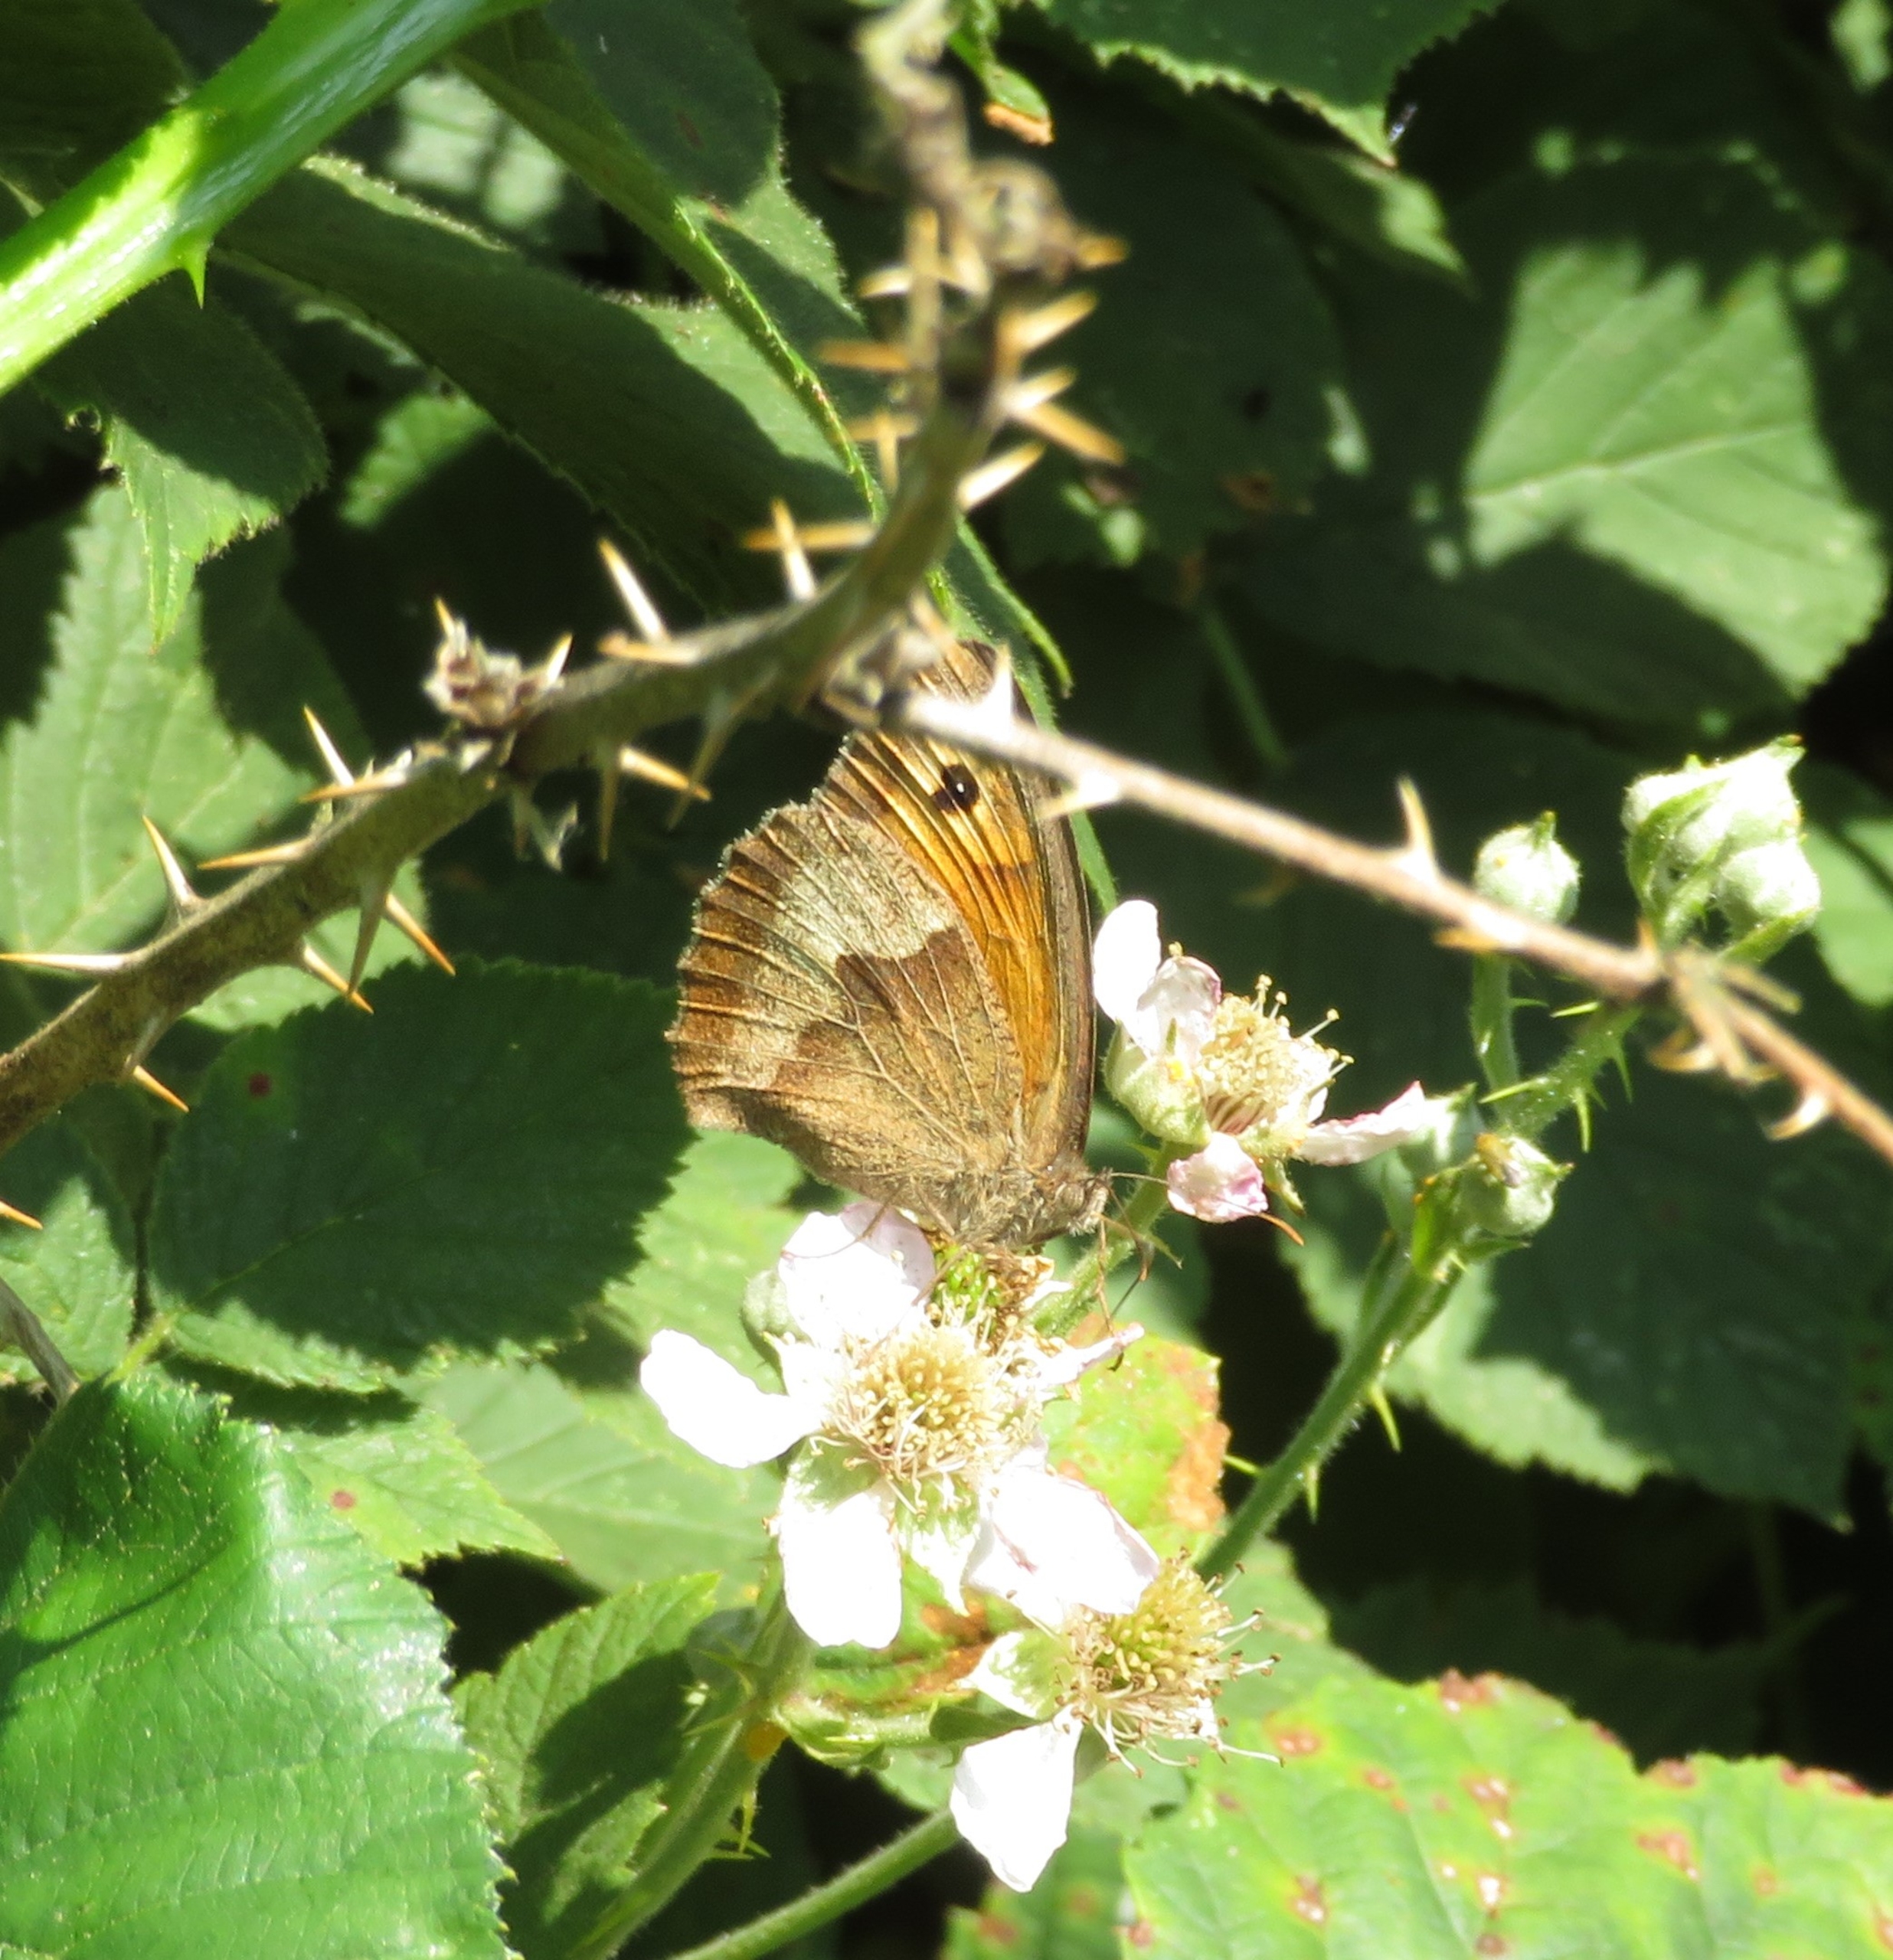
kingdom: Animalia
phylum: Arthropoda
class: Insecta
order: Lepidoptera
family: Nymphalidae
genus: Maniola
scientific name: Maniola jurtina
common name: Græsrandøje
